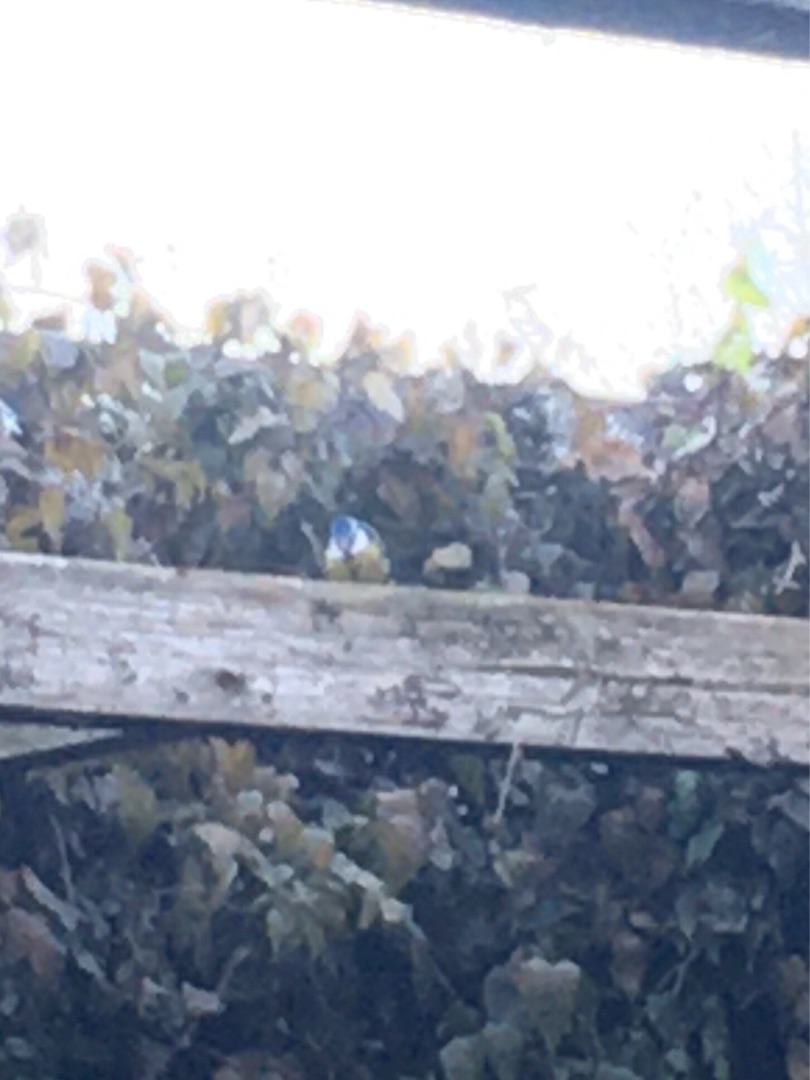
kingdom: Animalia
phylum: Chordata
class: Aves
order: Passeriformes
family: Paridae
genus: Cyanistes
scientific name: Cyanistes caeruleus
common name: Blåmejse
